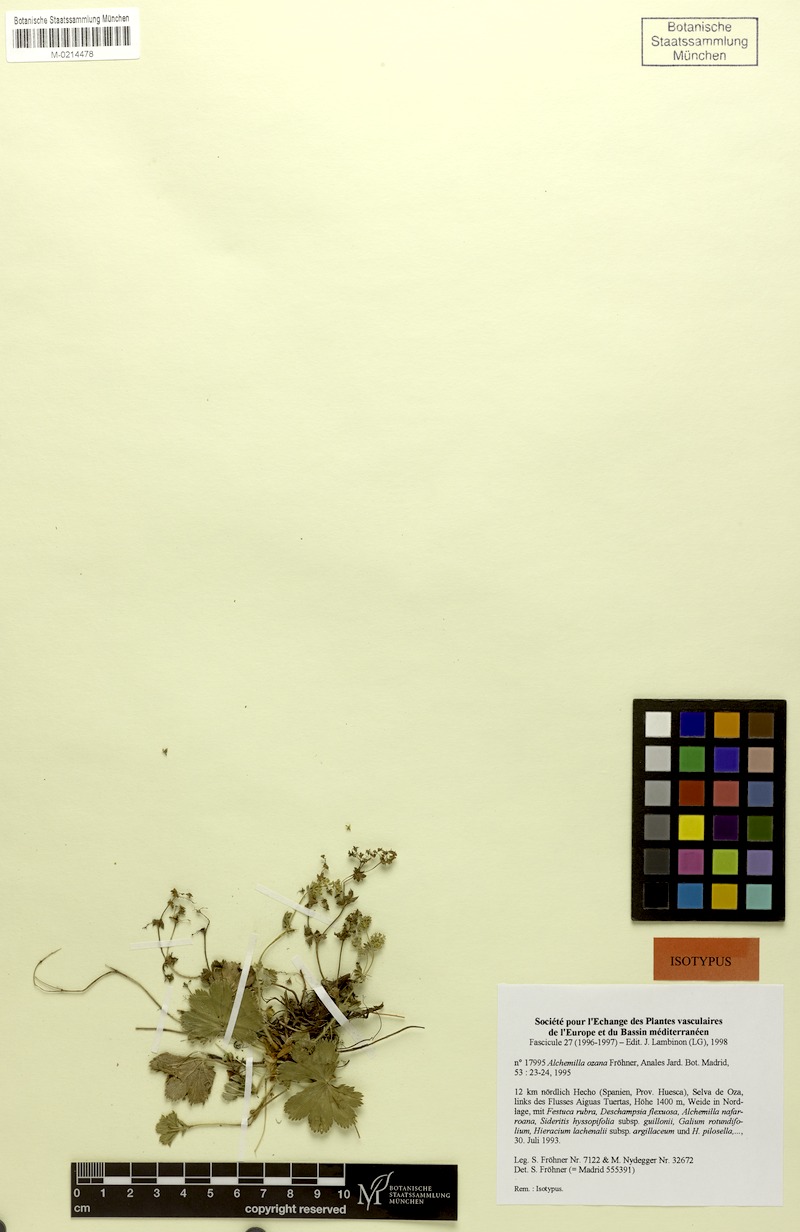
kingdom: Plantae
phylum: Tracheophyta
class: Magnoliopsida
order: Rosales
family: Rosaceae
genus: Alchemilla
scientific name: Alchemilla ozana
